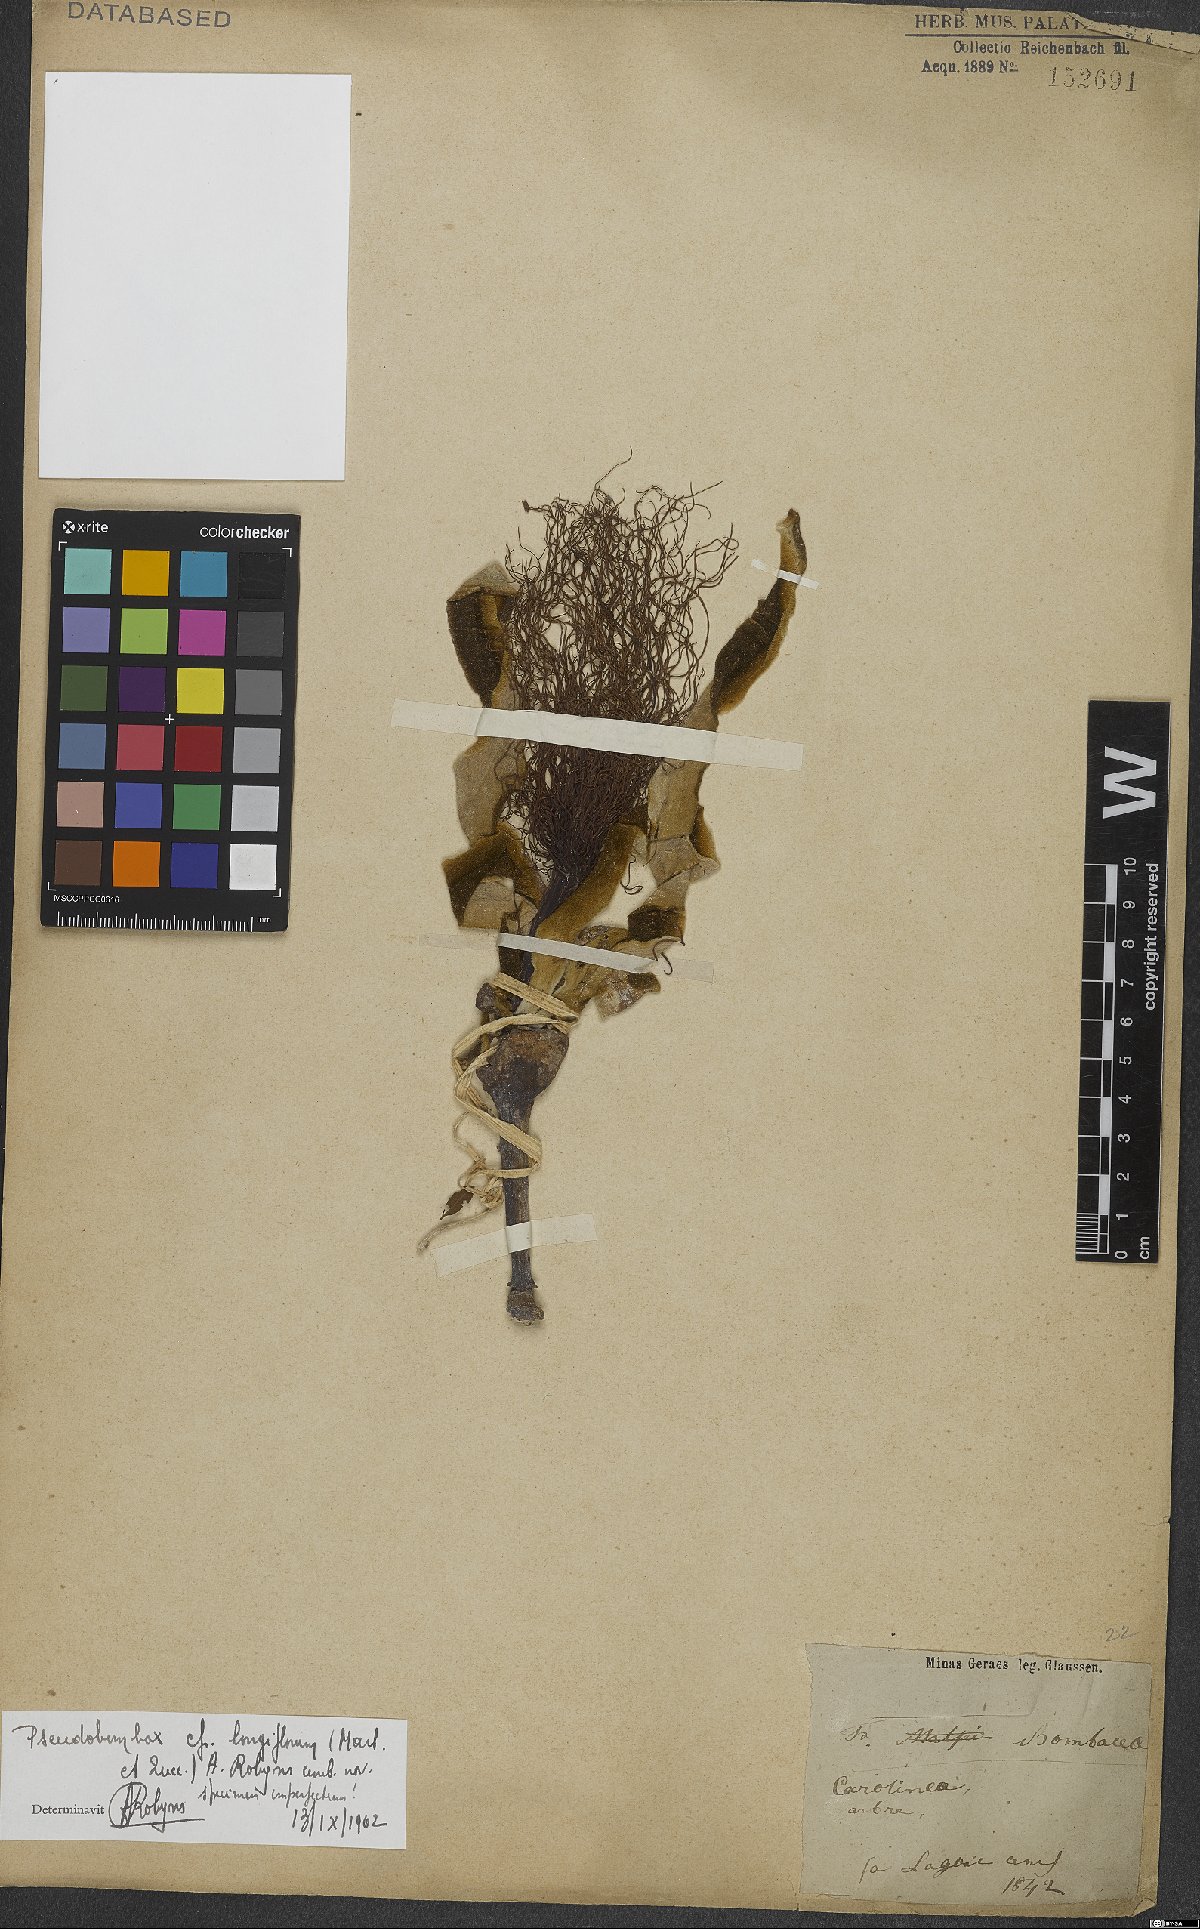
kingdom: Plantae
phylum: Tracheophyta
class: Magnoliopsida
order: Malvales
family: Malvaceae
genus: Pseudobombax
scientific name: Pseudobombax longiflorum
